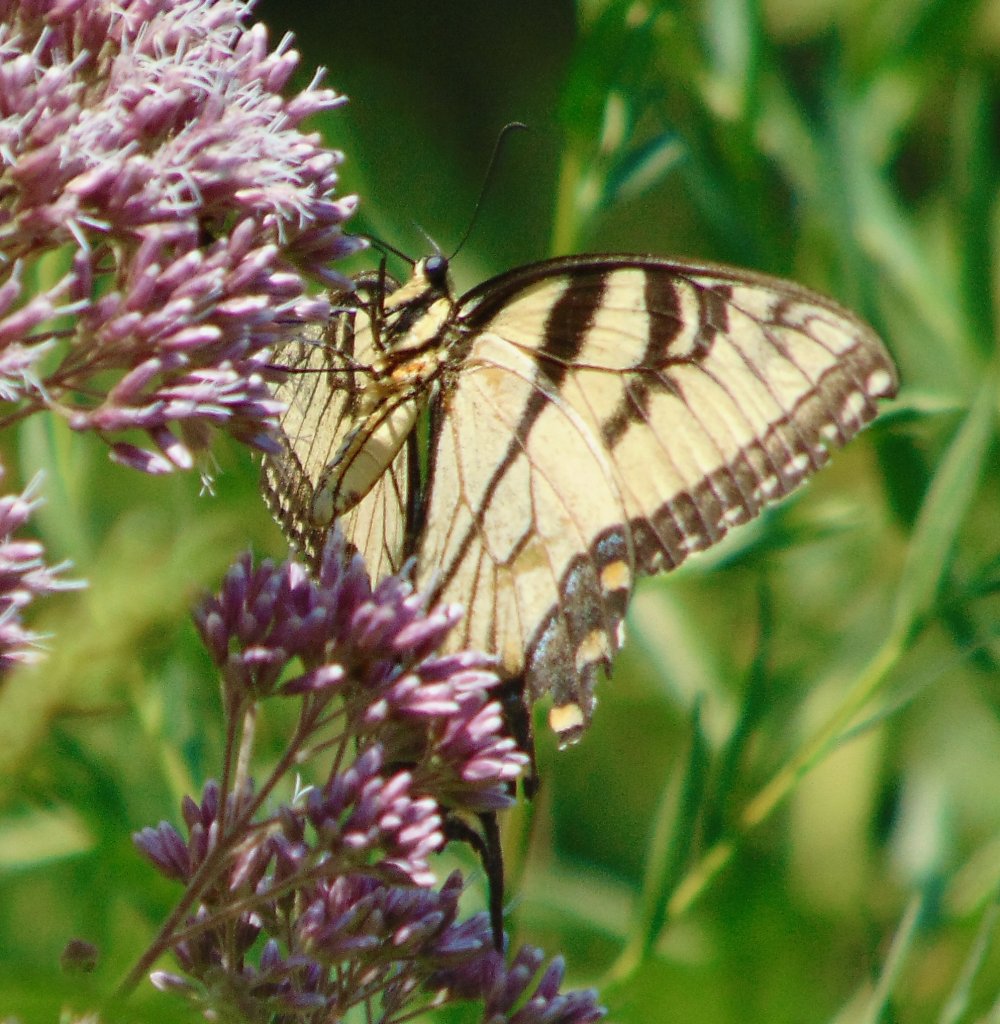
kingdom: Animalia
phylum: Arthropoda
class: Insecta
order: Lepidoptera
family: Papilionidae
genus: Pterourus
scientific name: Pterourus glaucus
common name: Eastern Tiger Swallowtail
